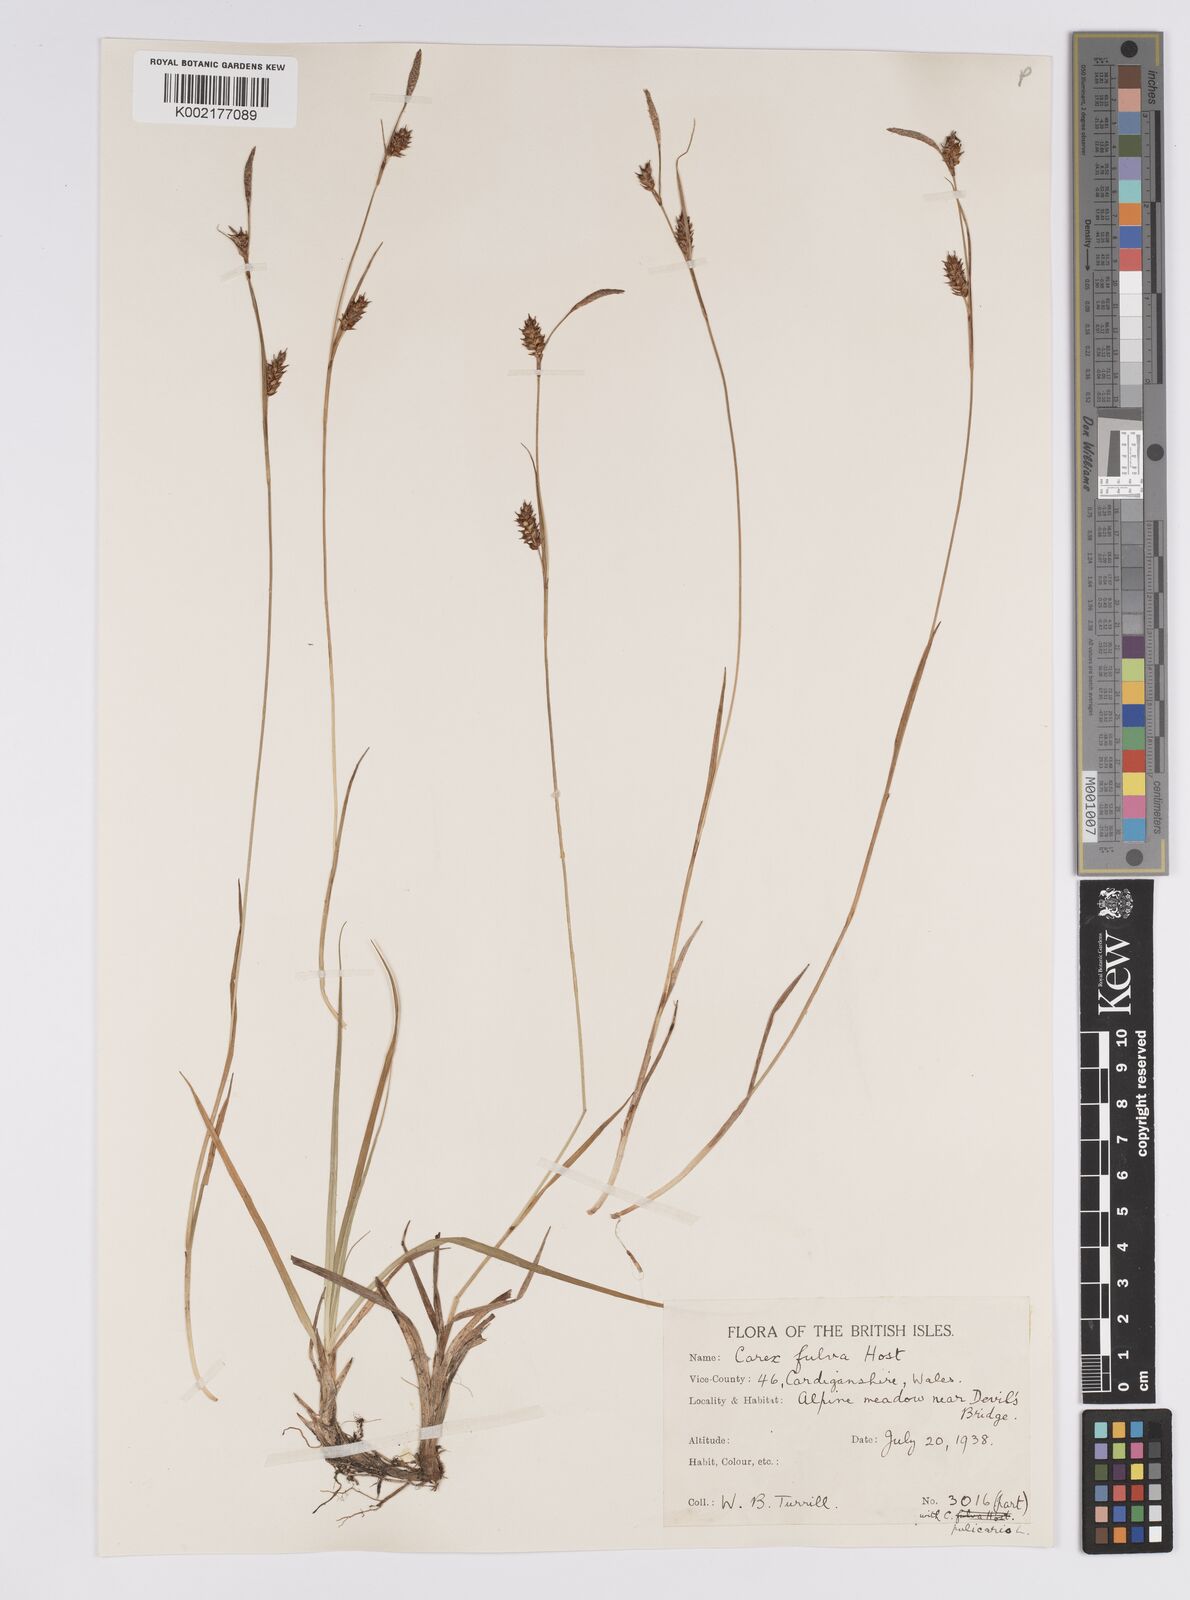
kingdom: Plantae
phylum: Tracheophyta
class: Liliopsida
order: Poales
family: Cyperaceae
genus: Carex
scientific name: Carex hostiana
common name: Tawny sedge
